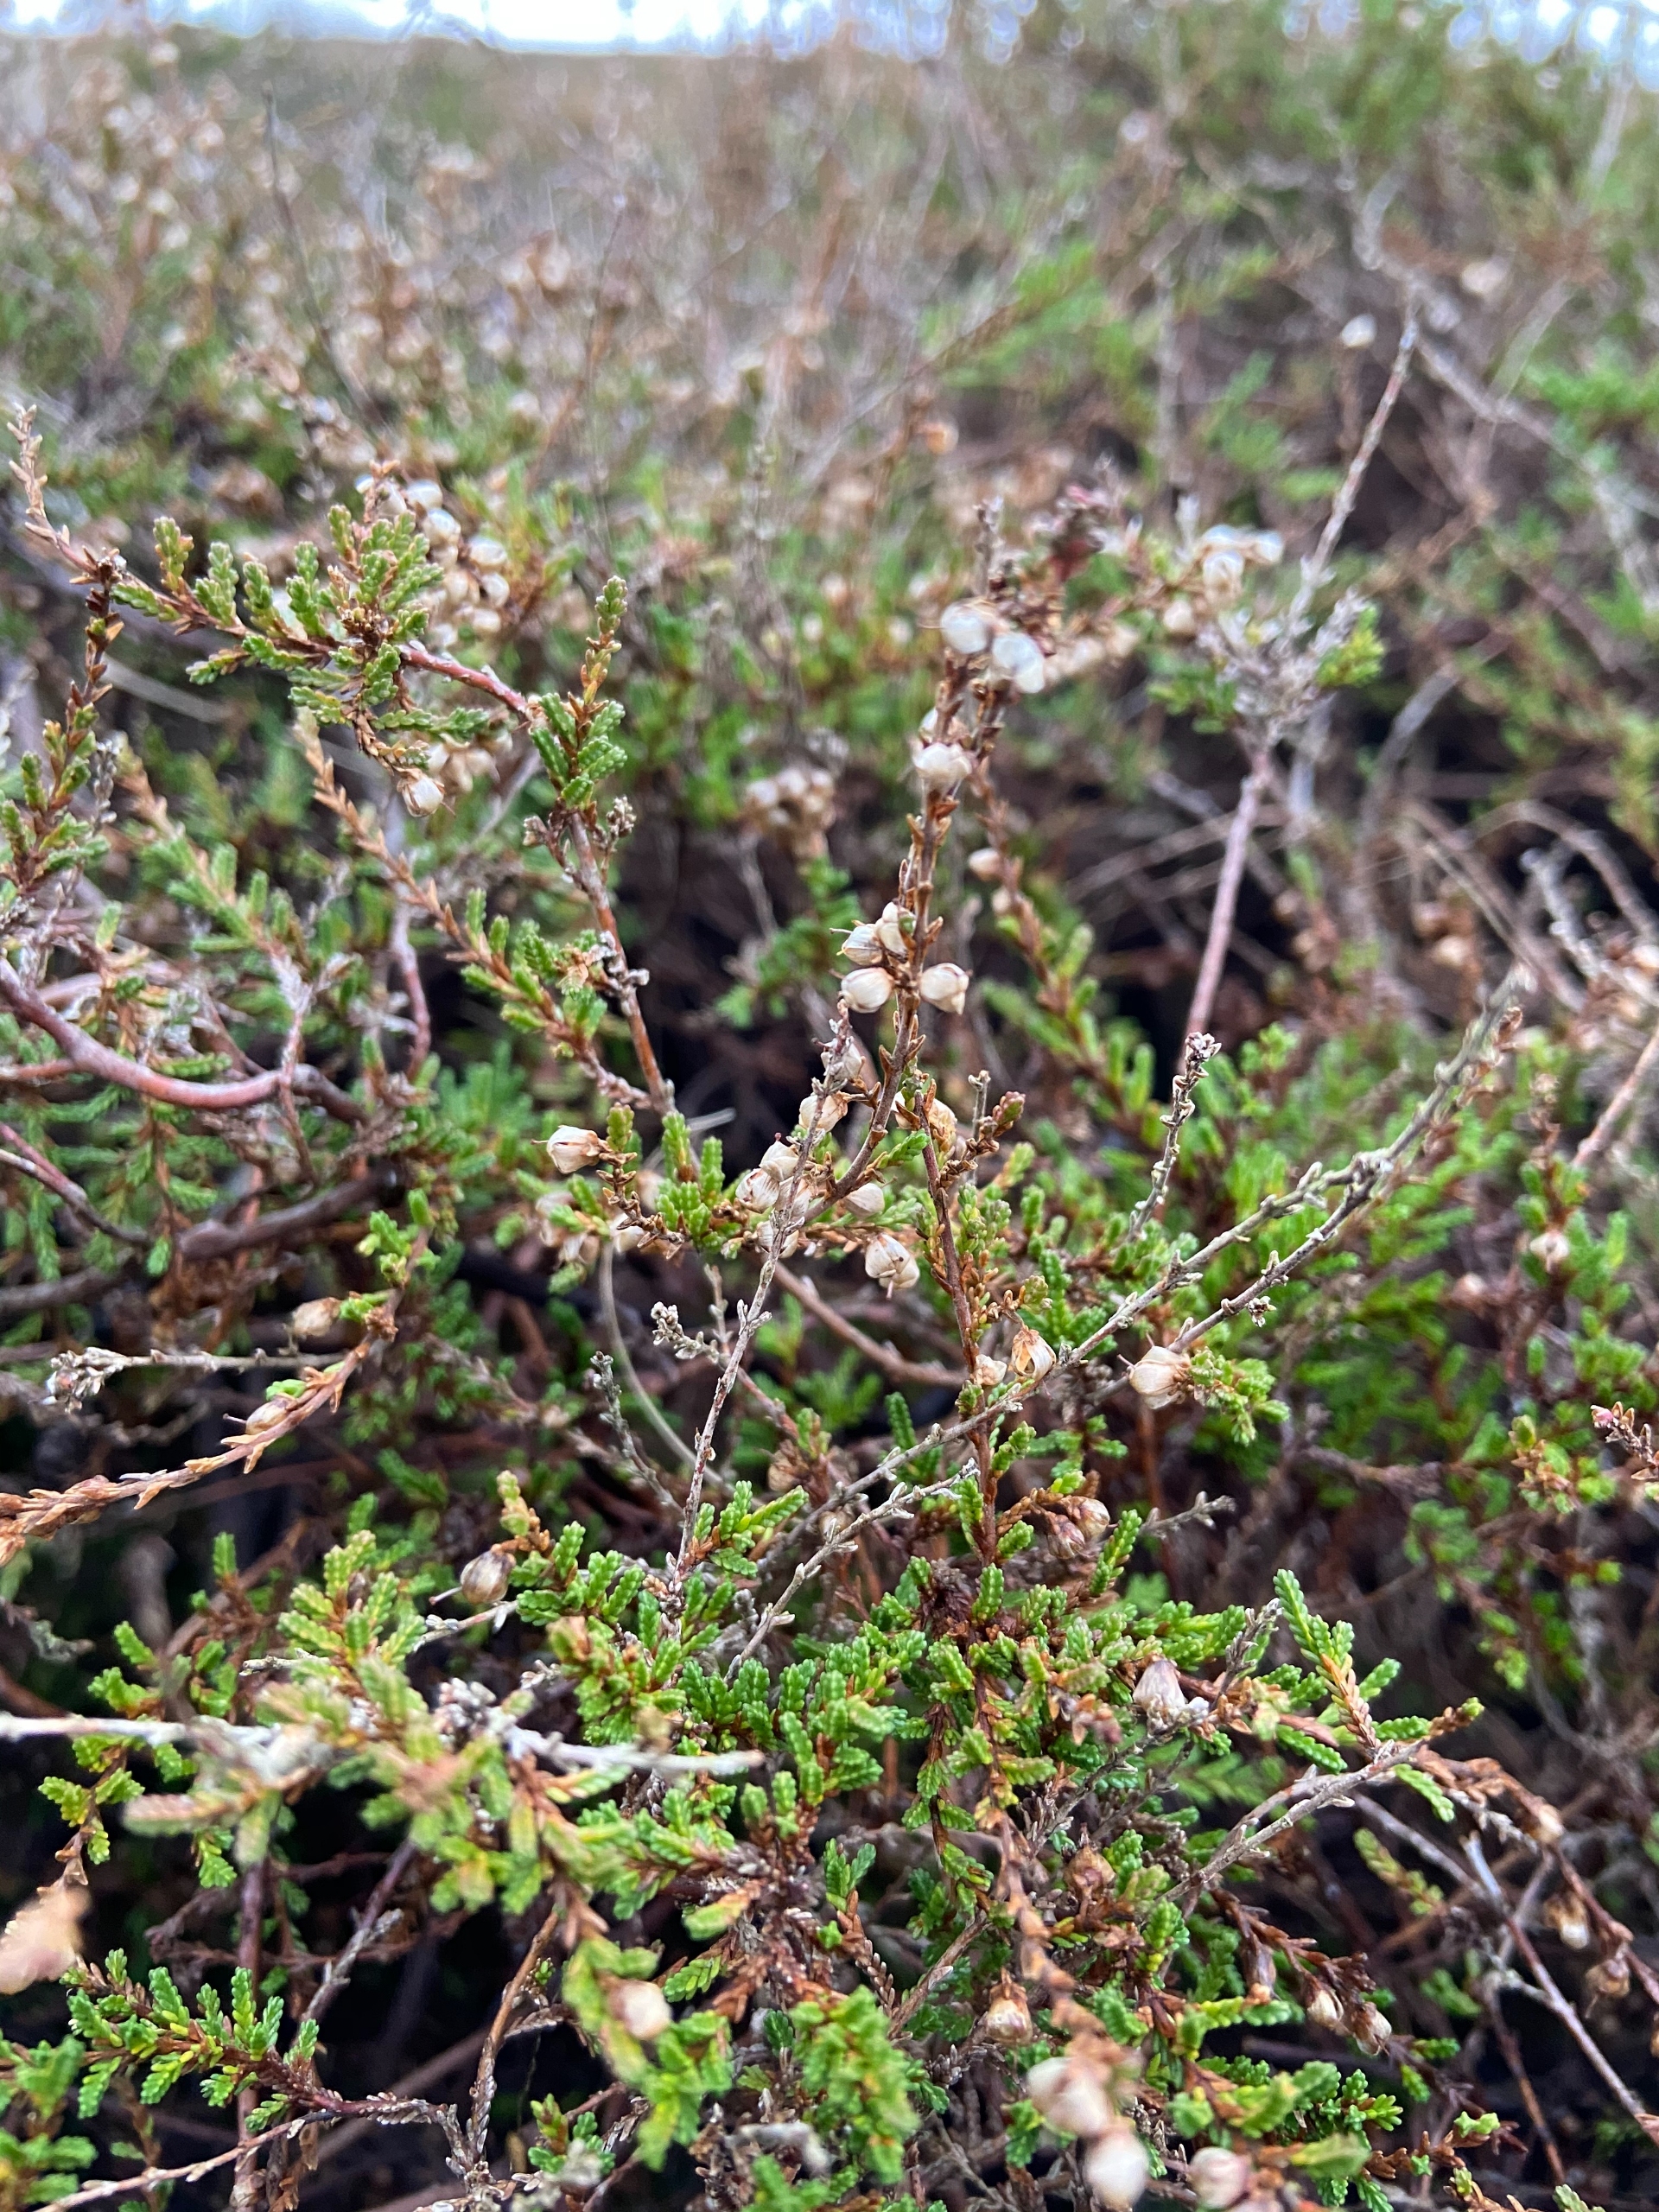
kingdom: Plantae
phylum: Tracheophyta
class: Magnoliopsida
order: Ericales
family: Ericaceae
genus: Calluna
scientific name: Calluna vulgaris
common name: Hedelyng
